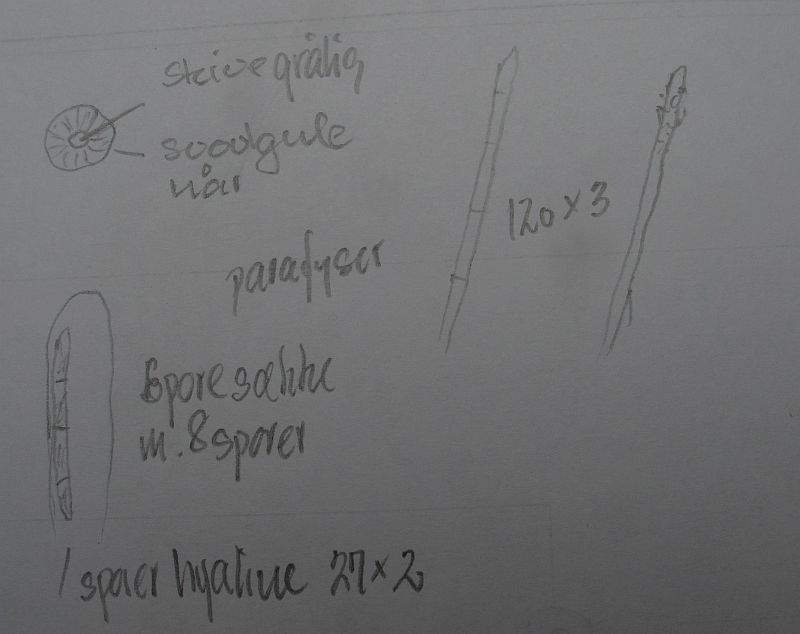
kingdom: Fungi
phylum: Ascomycota
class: Leotiomycetes
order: Helotiales
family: Lachnaceae
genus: Lachnum
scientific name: Lachnum sulphureum
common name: svovlhåret frynseskive
